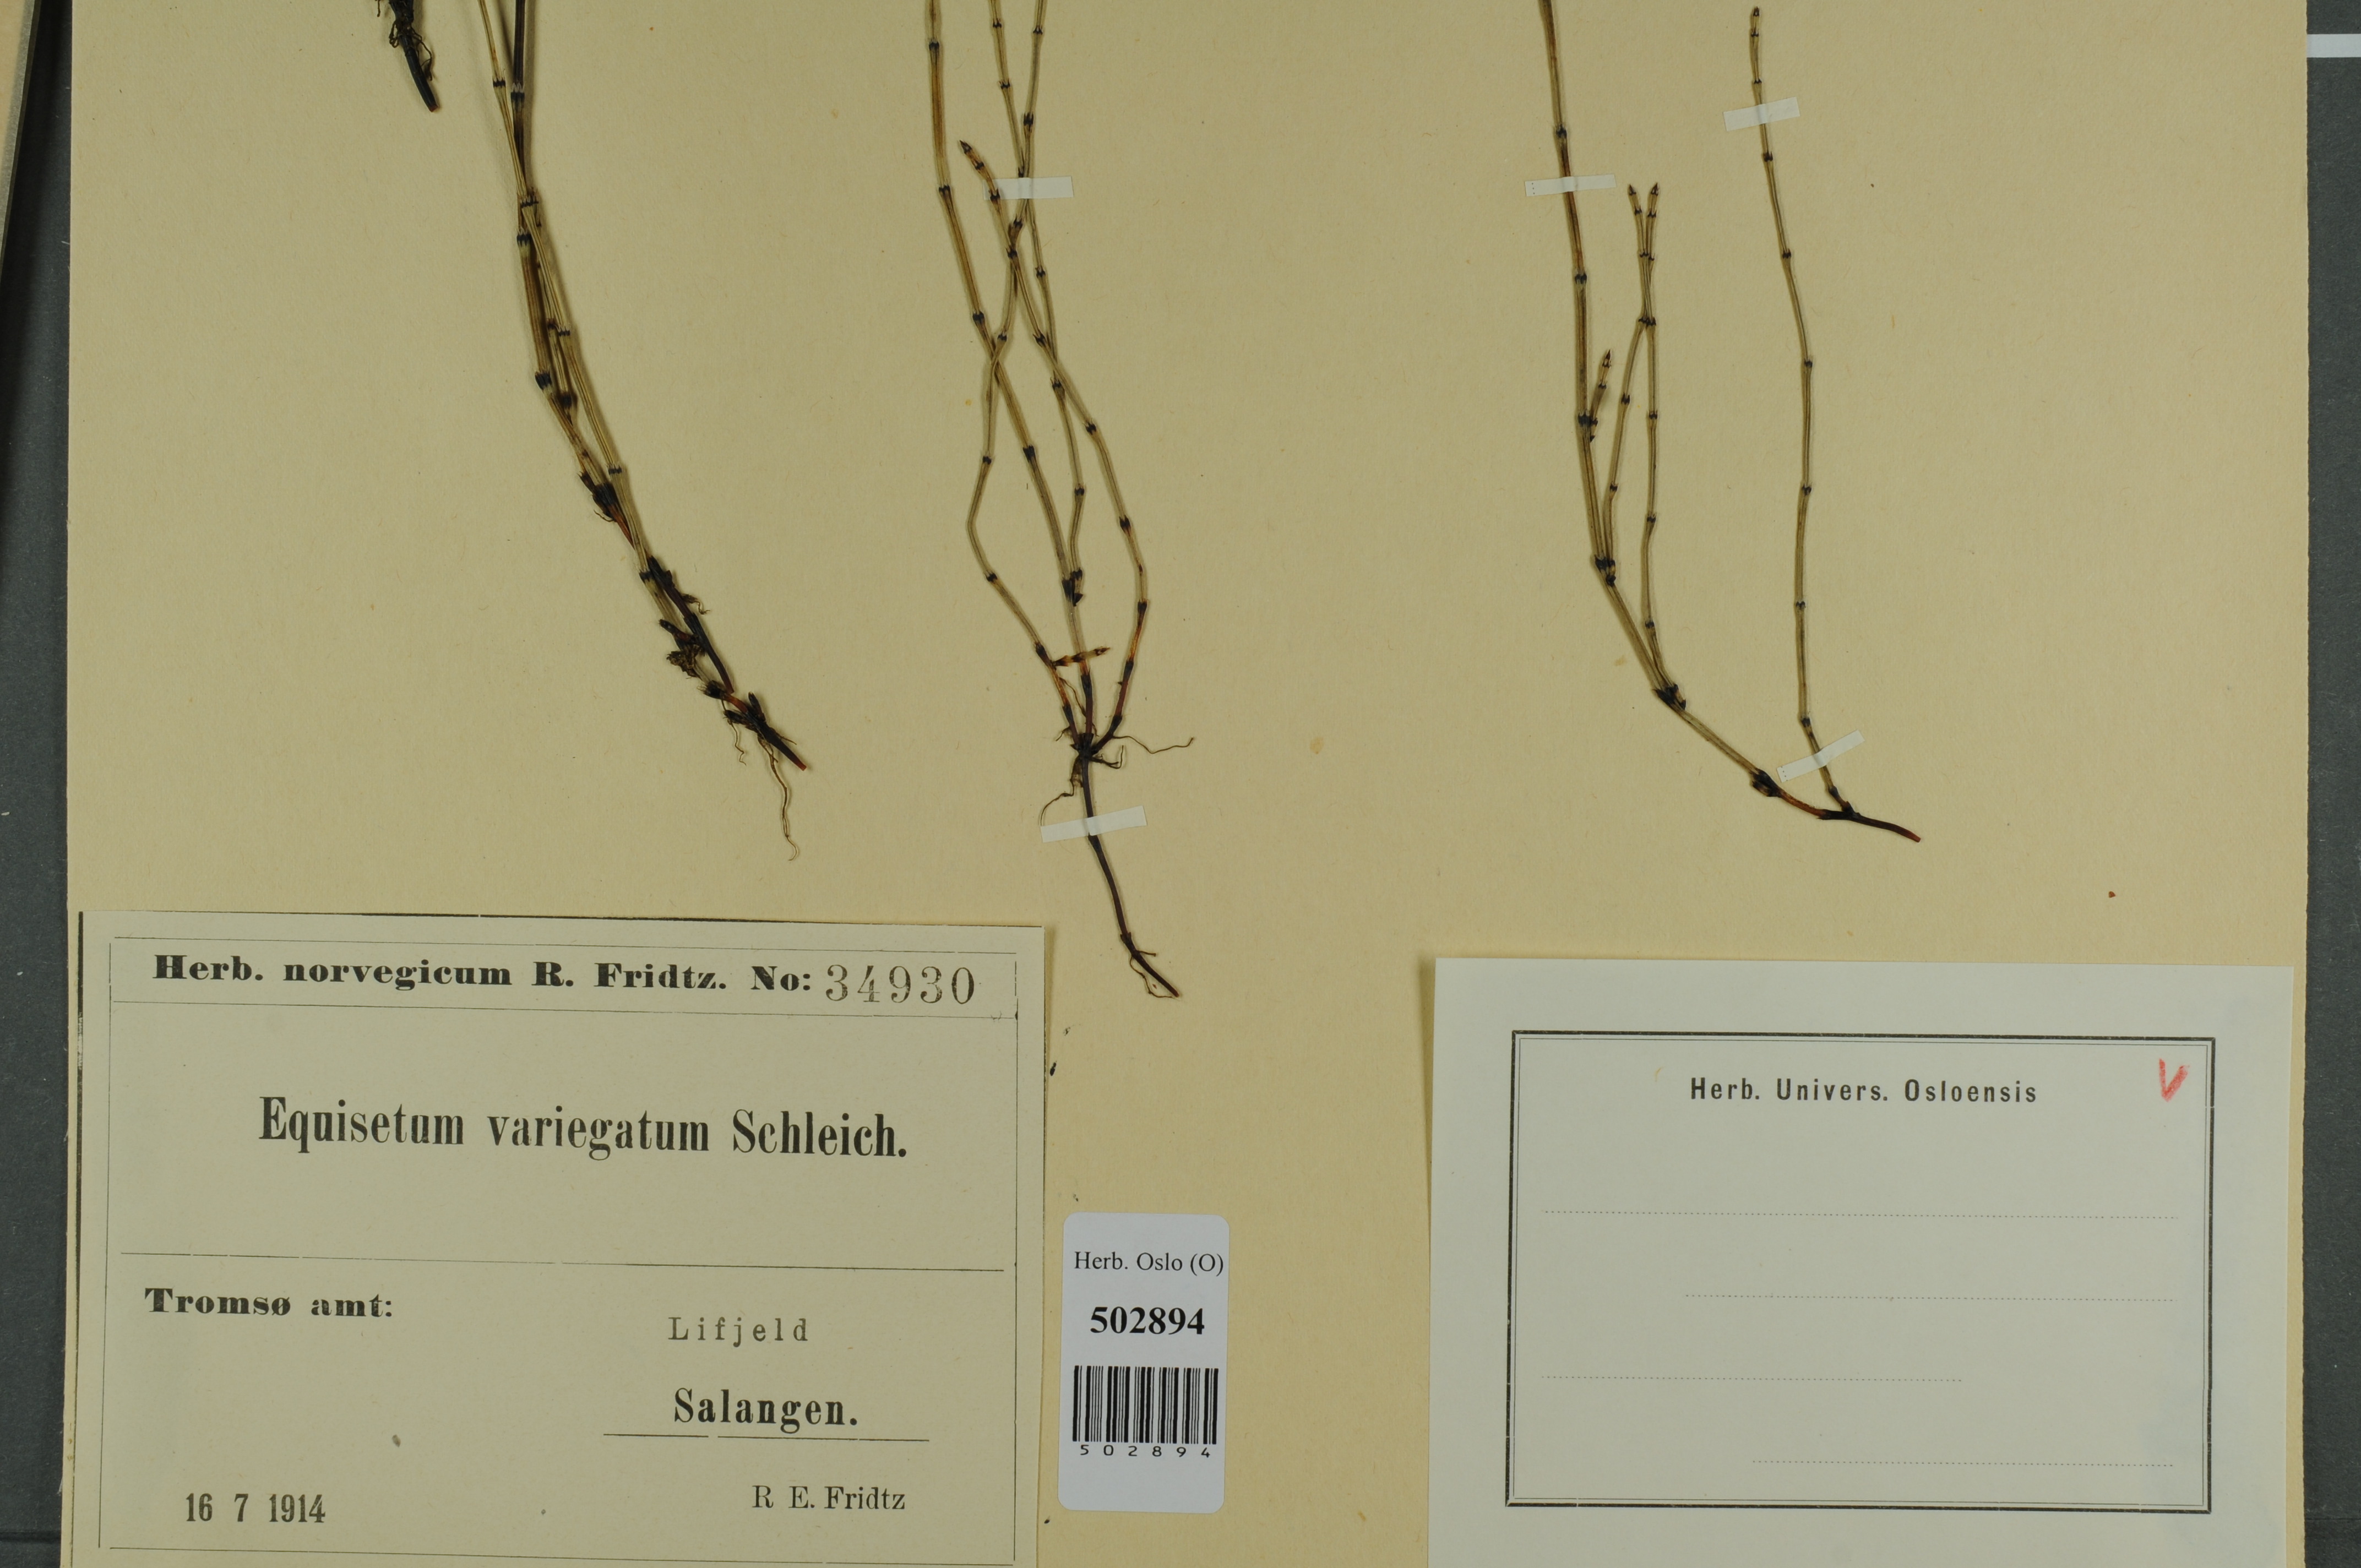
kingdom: Plantae
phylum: Tracheophyta
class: Polypodiopsida
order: Equisetales
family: Equisetaceae
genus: Equisetum
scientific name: Equisetum variegatum
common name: Variegated horsetail
